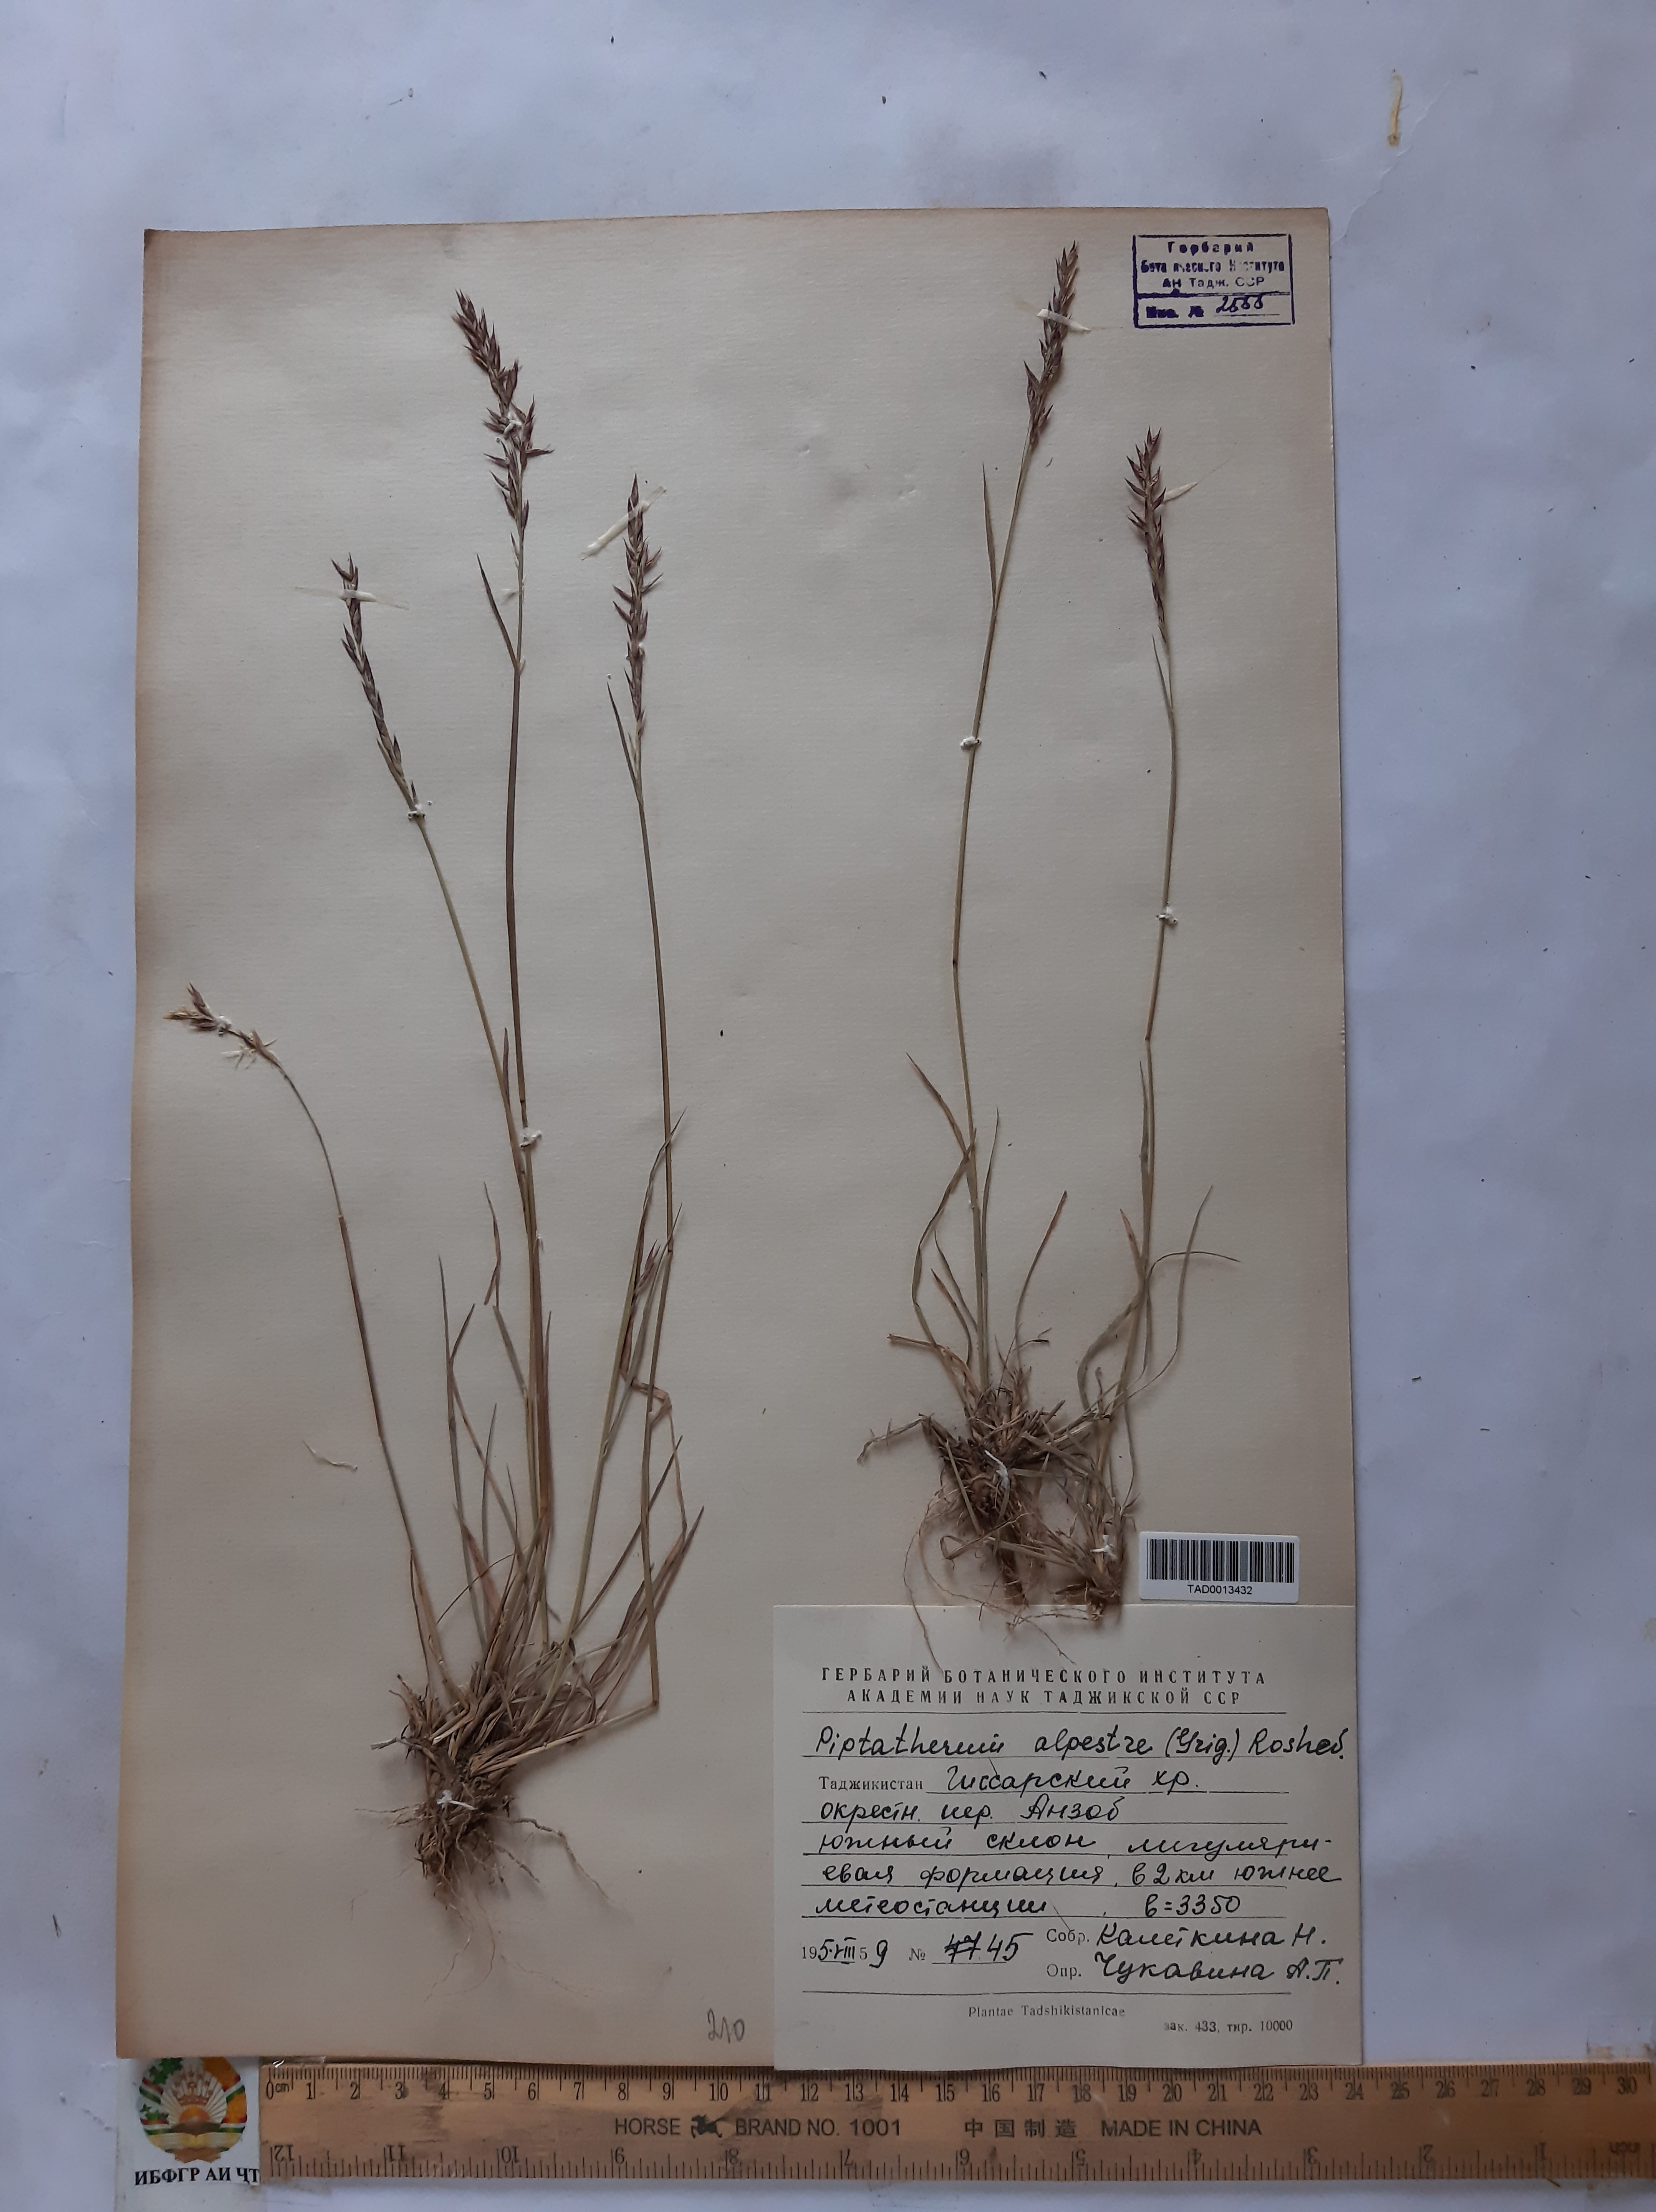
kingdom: Plantae
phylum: Tracheophyta
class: Liliopsida
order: Poales
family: Poaceae
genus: Piptatherum
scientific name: Piptatherum alpestre
